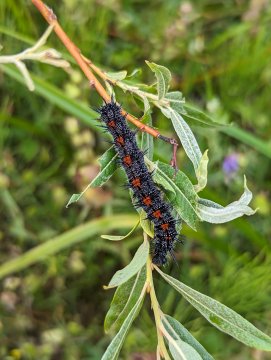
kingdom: Animalia
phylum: Arthropoda
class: Insecta
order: Lepidoptera
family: Nymphalidae
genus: Nymphalis
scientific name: Nymphalis antiopa
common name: Mourning Cloak
